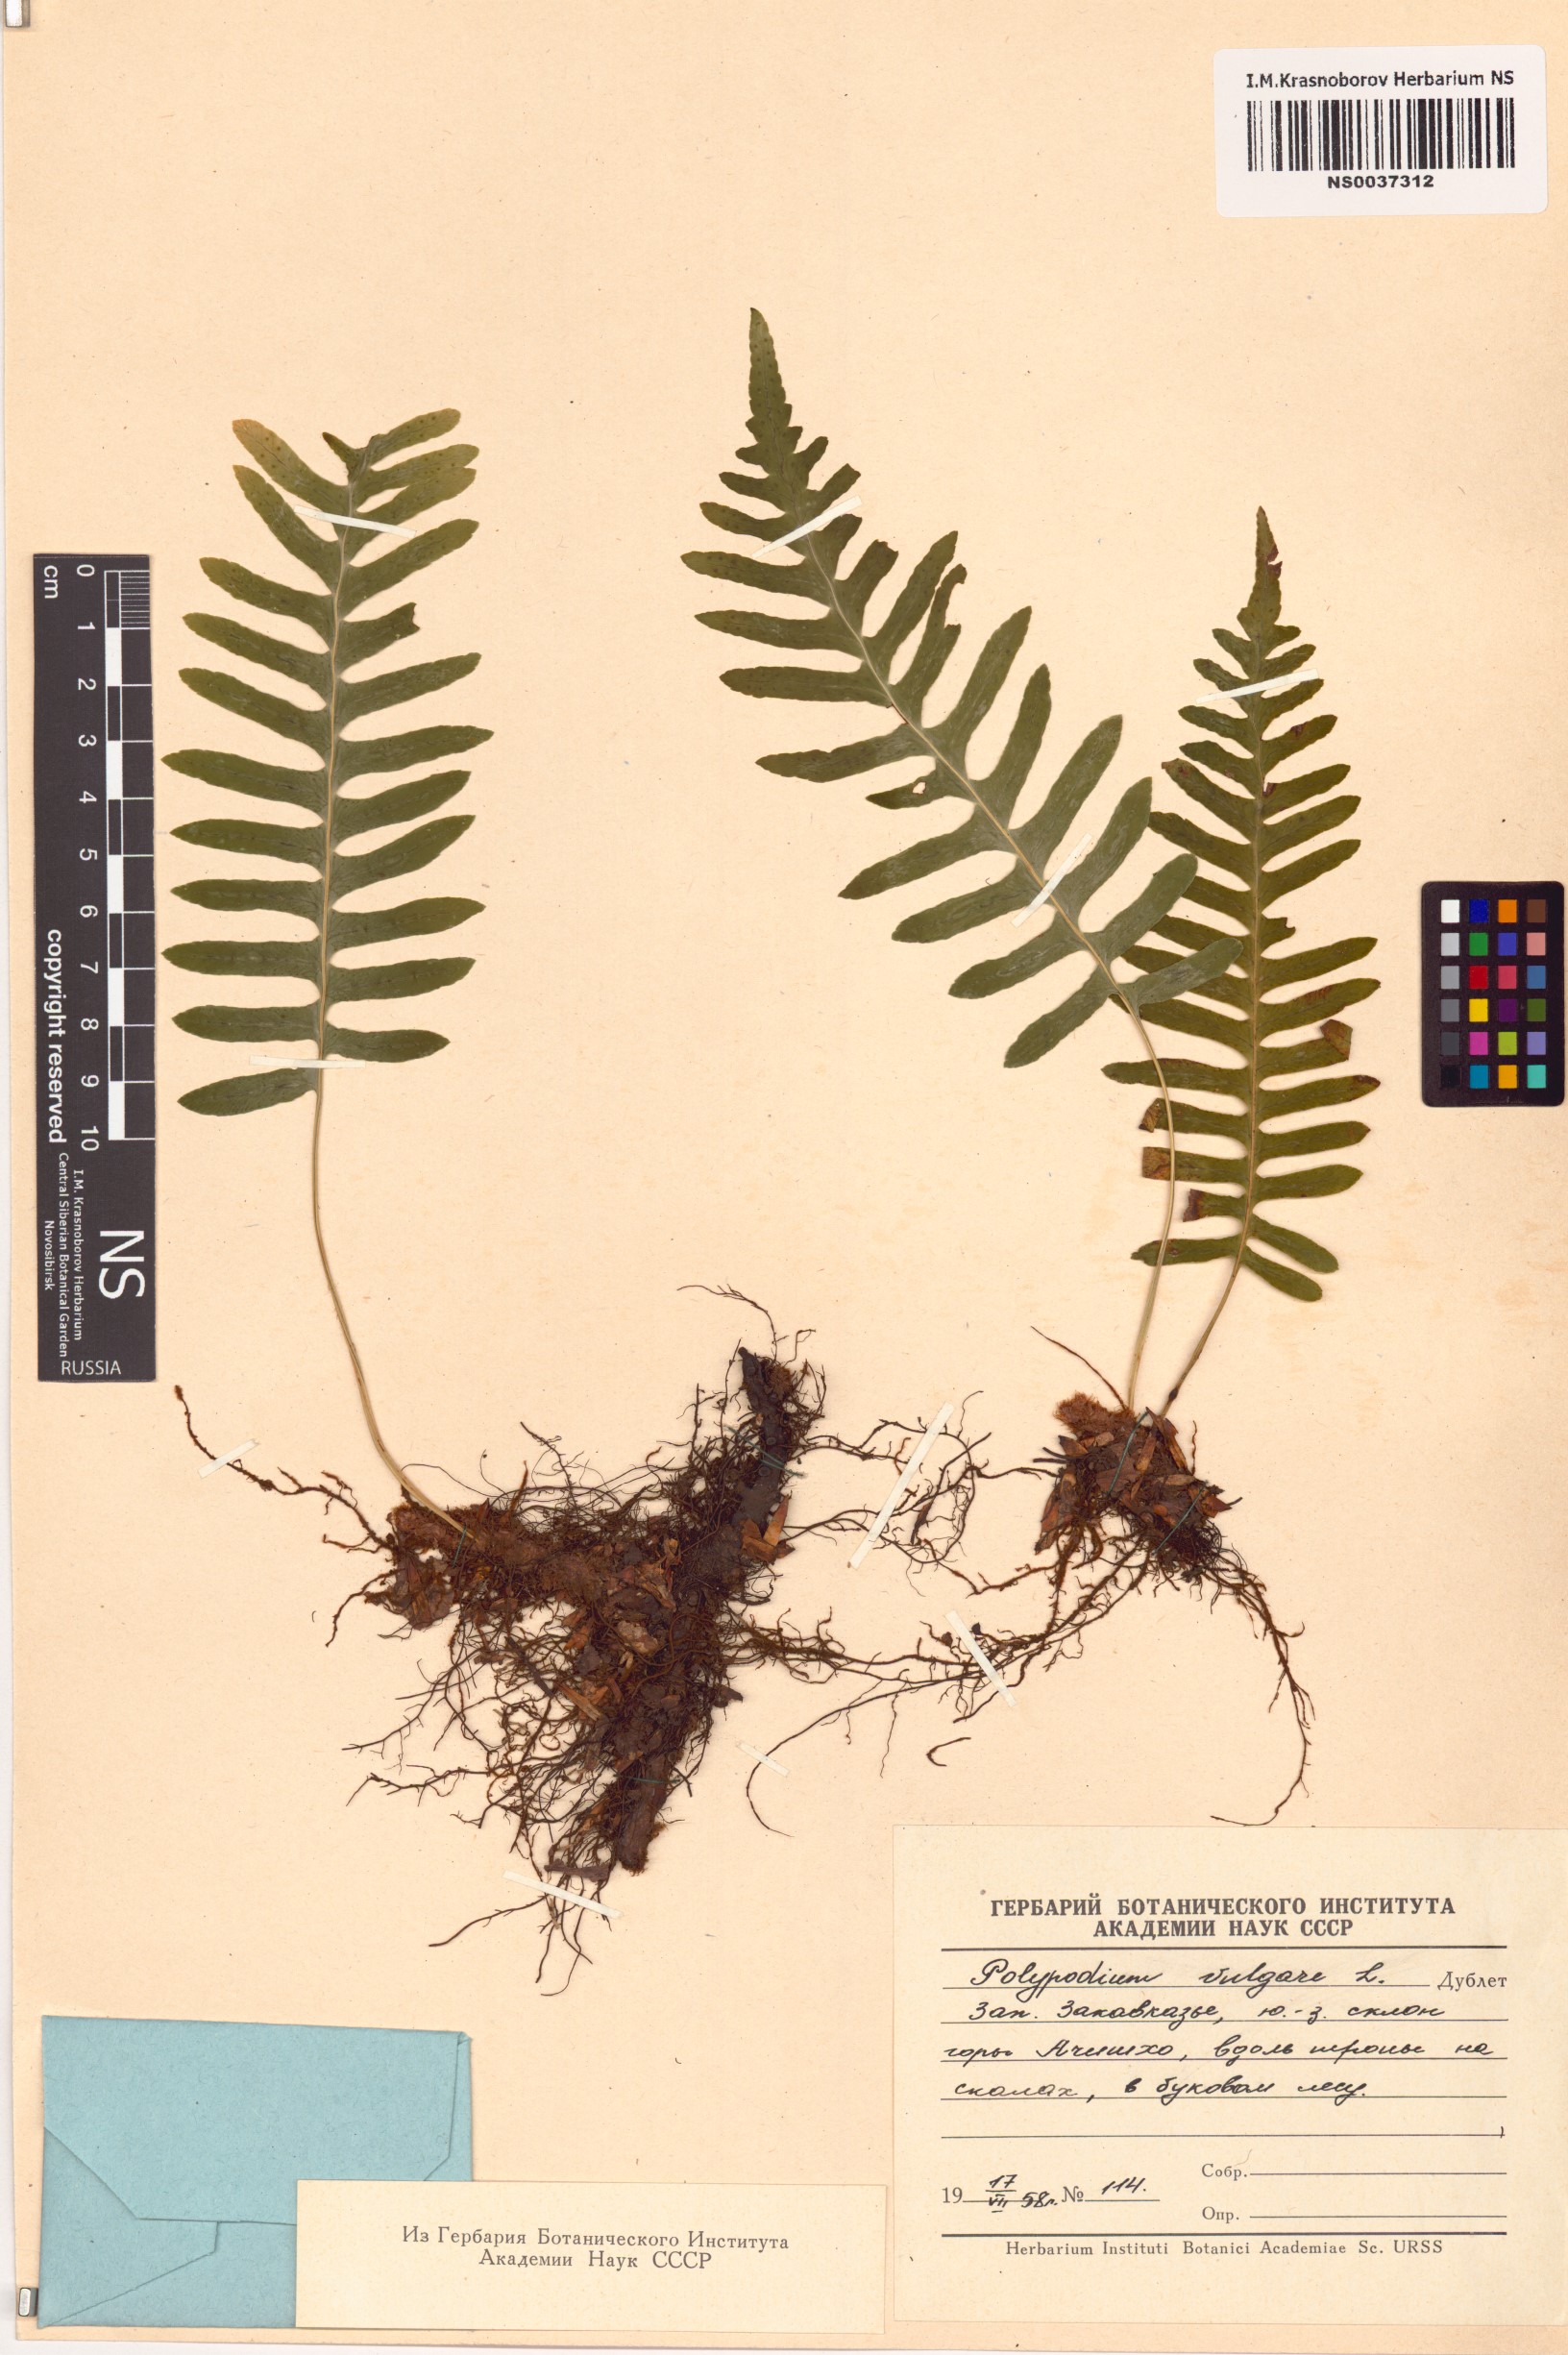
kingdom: Plantae
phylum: Tracheophyta
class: Polypodiopsida
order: Polypodiales
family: Polypodiaceae
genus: Polypodium
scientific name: Polypodium vulgare
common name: Common polypody
